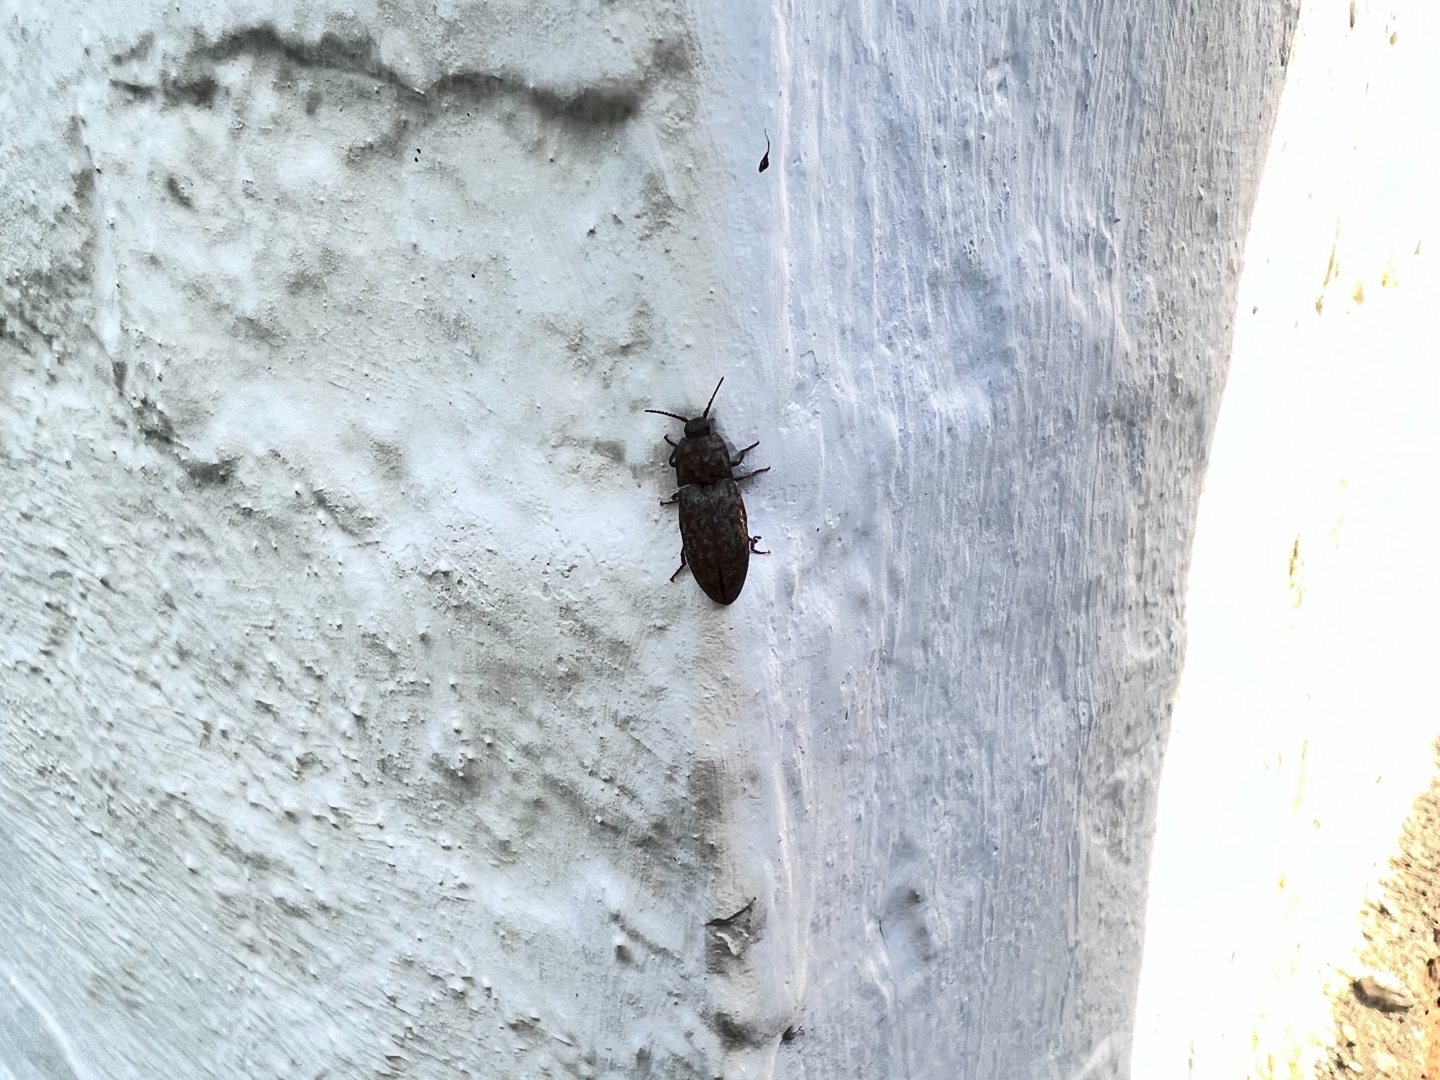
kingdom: Animalia
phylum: Arthropoda
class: Insecta
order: Coleoptera
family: Elateridae
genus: Agrypnus
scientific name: Agrypnus murinus
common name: Musegrå smælder
